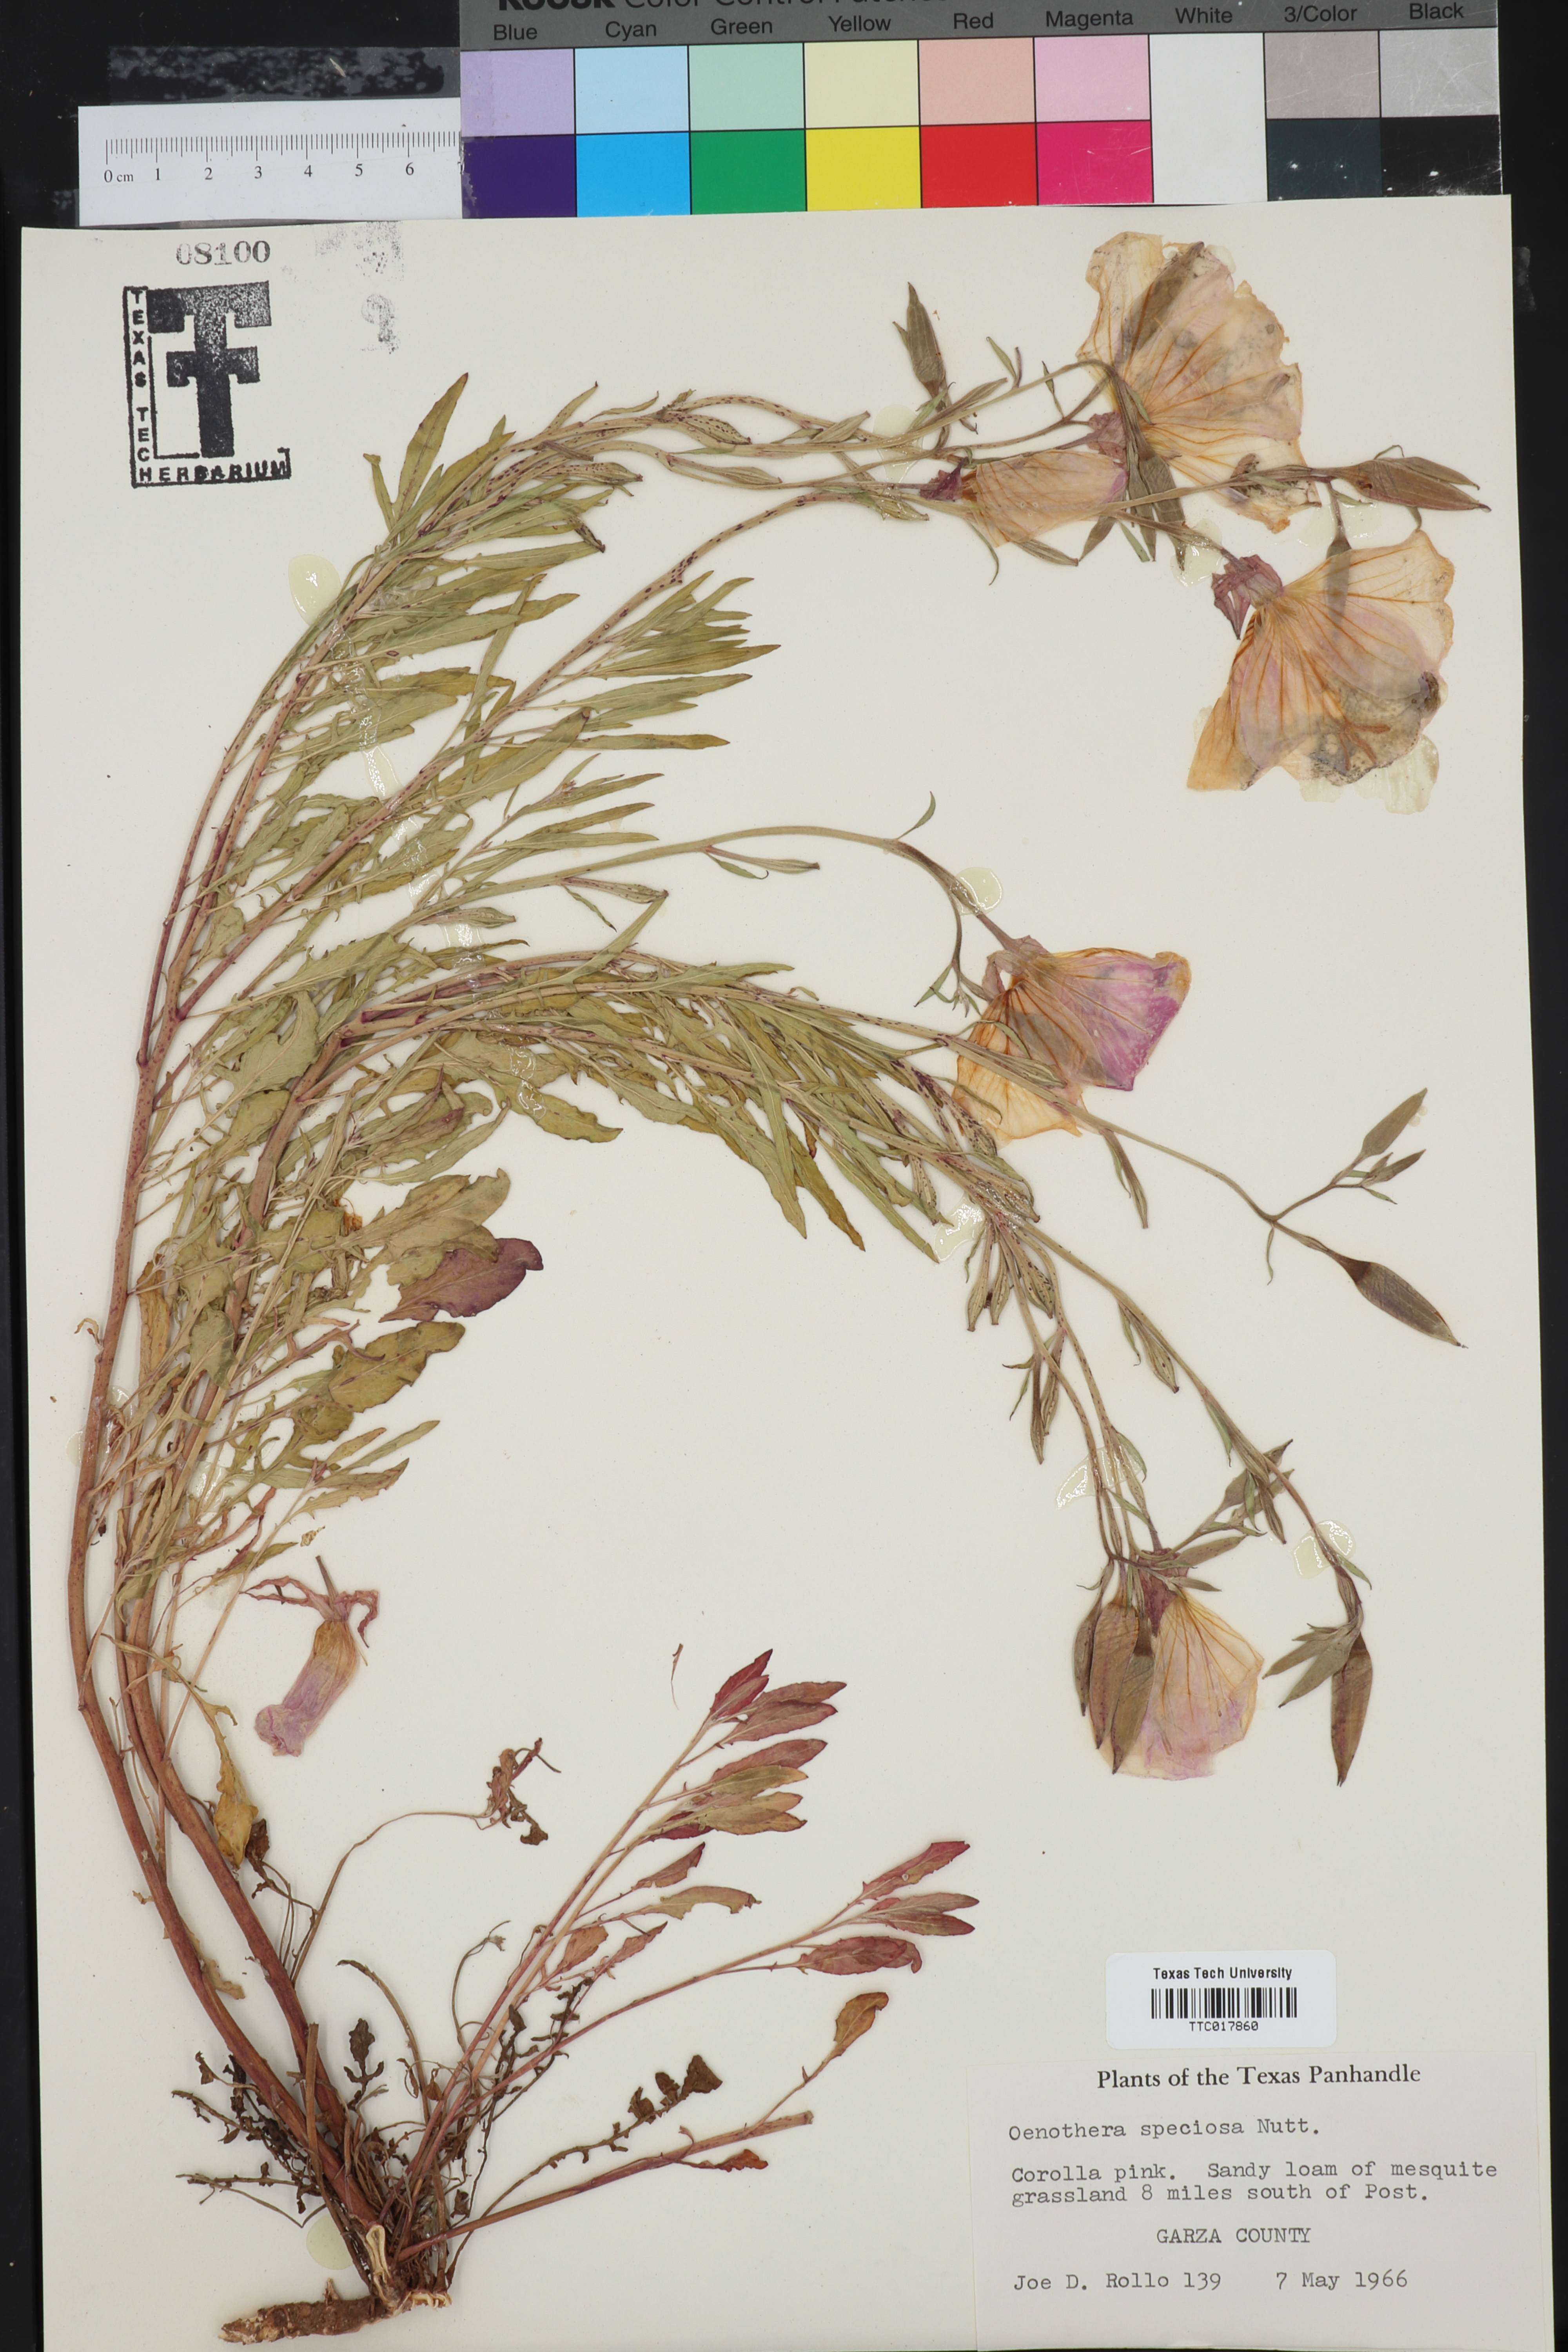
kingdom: Plantae
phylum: Tracheophyta
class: Magnoliopsida
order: Myrtales
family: Onagraceae
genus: Oenothera
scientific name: Oenothera speciosa
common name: White evening-primrose
